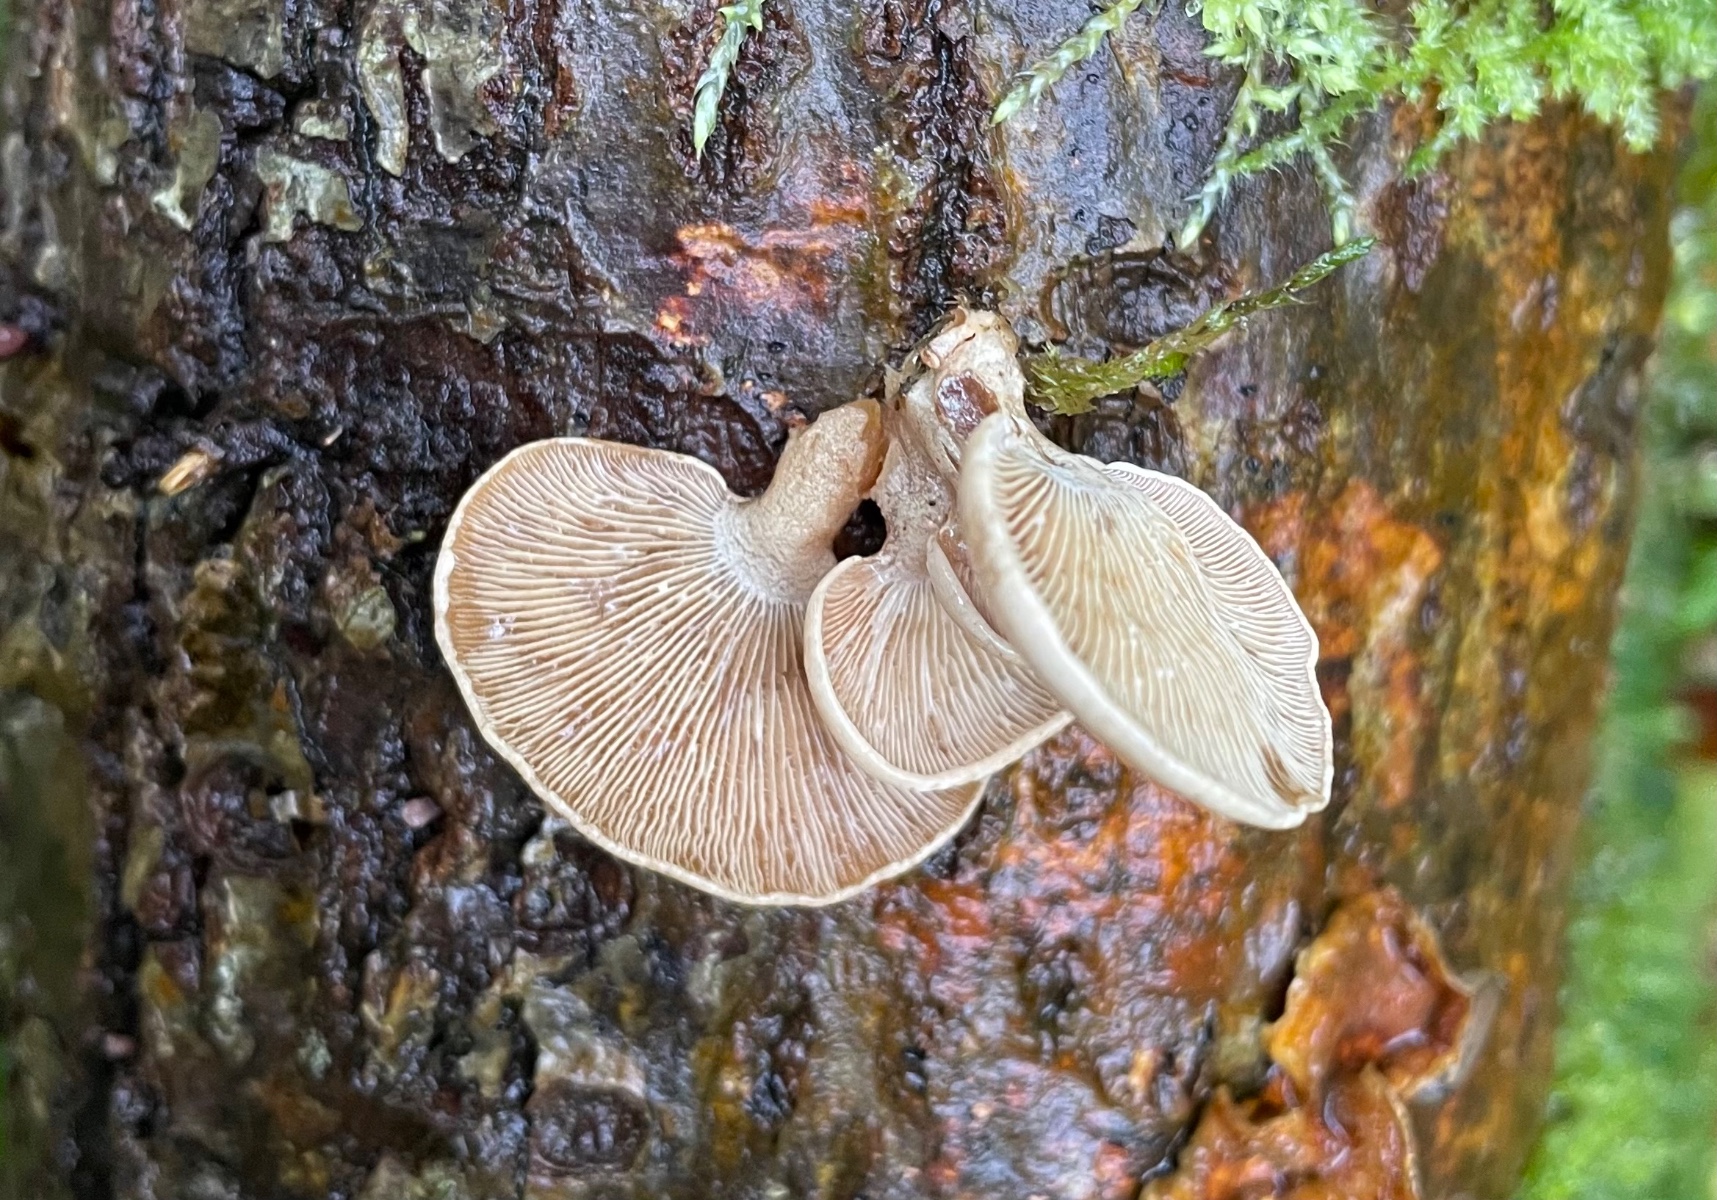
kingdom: Fungi
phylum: Basidiomycota
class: Agaricomycetes
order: Agaricales
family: Mycenaceae
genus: Panellus
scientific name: Panellus stipticus
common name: kliddet epaulethat
